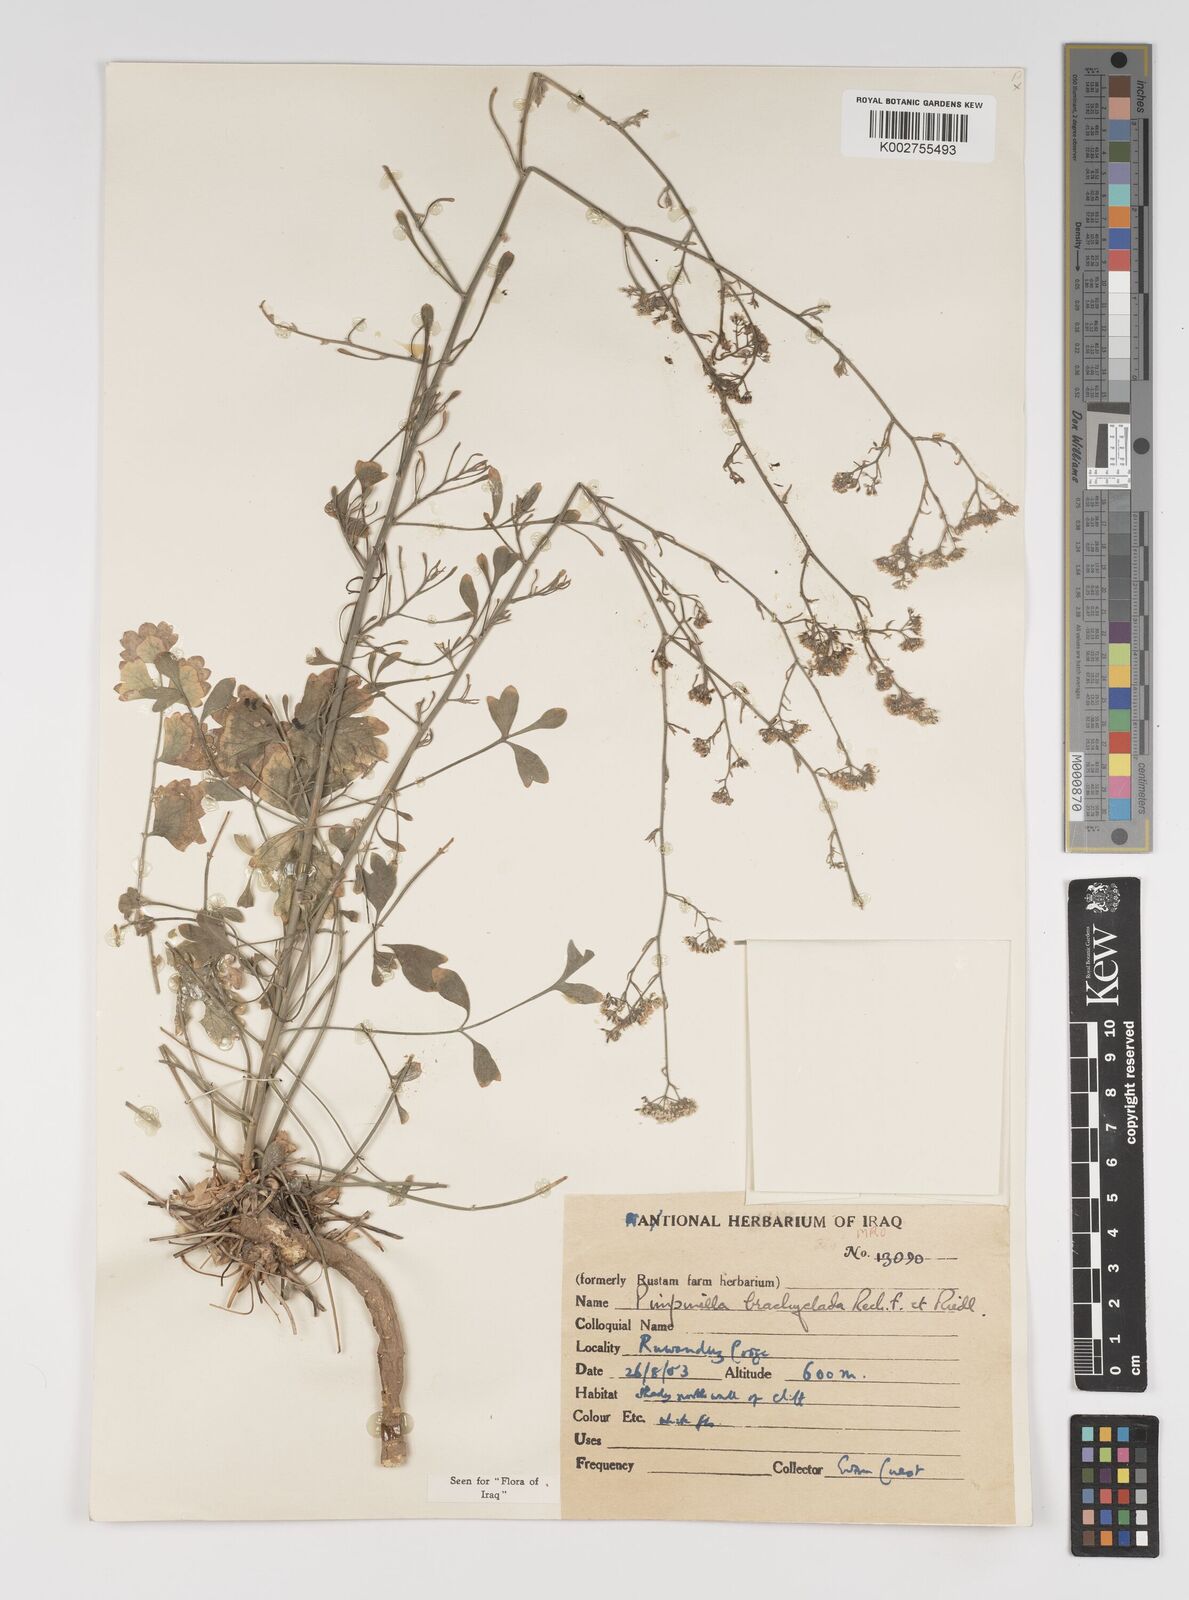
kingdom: Plantae
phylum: Tracheophyta
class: Magnoliopsida
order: Apiales
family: Apiaceae
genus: Pimpinella
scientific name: Pimpinella brachyclada
